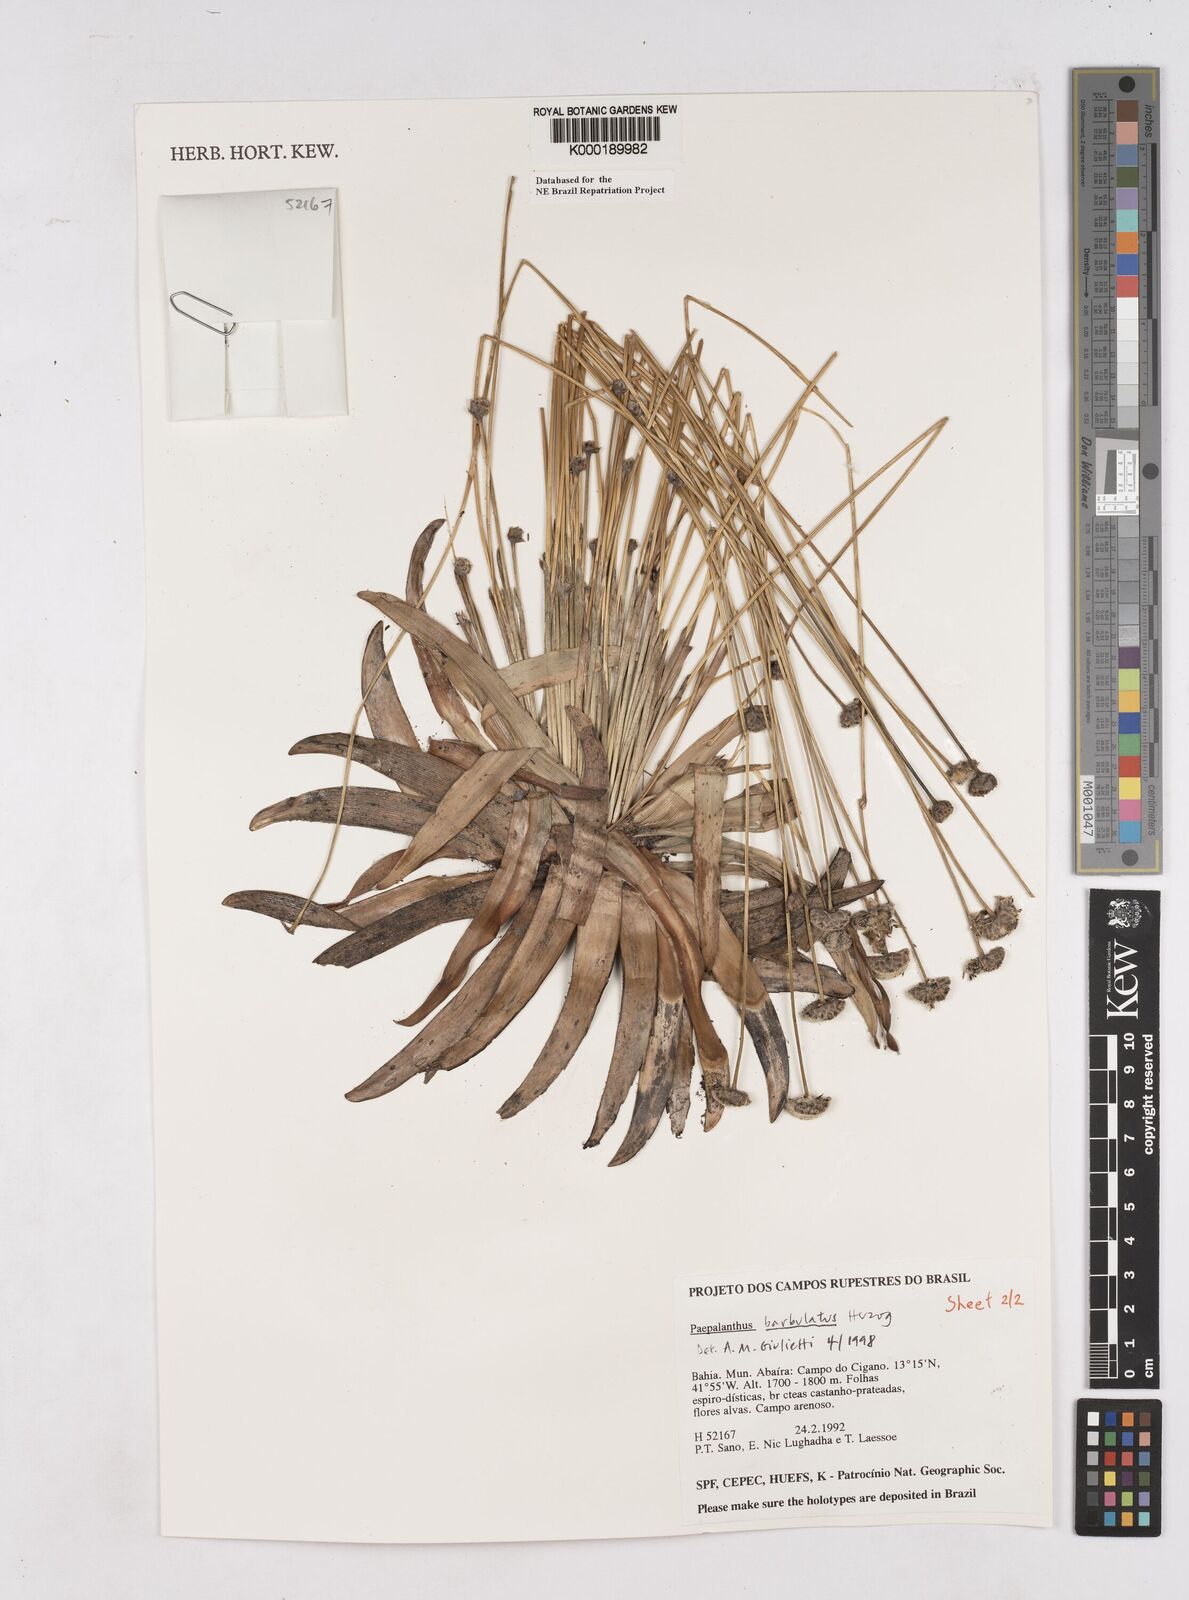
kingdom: Plantae
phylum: Tracheophyta
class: Liliopsida
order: Poales
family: Eriocaulaceae
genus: Paepalanthus
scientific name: Paepalanthus barbulatus
